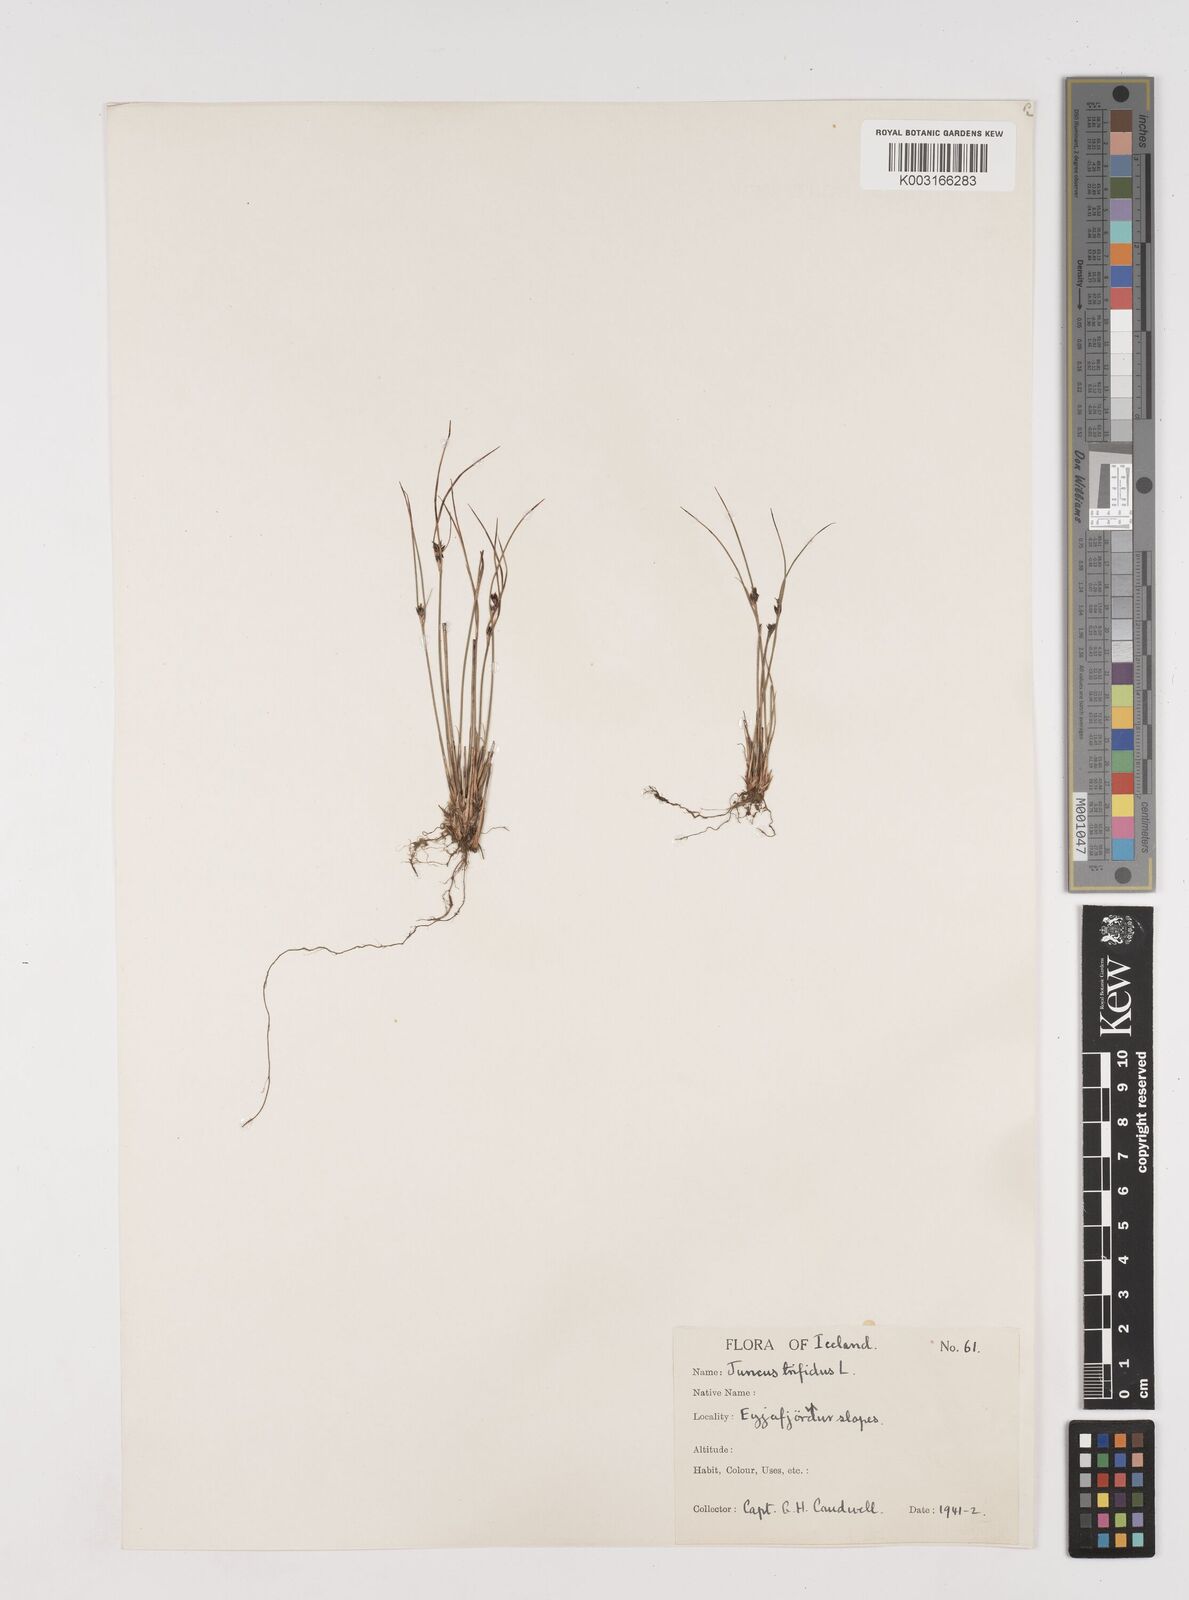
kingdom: Plantae
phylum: Tracheophyta
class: Liliopsida
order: Poales
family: Juncaceae
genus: Oreojuncus
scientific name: Oreojuncus trifidus
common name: Highland rush
